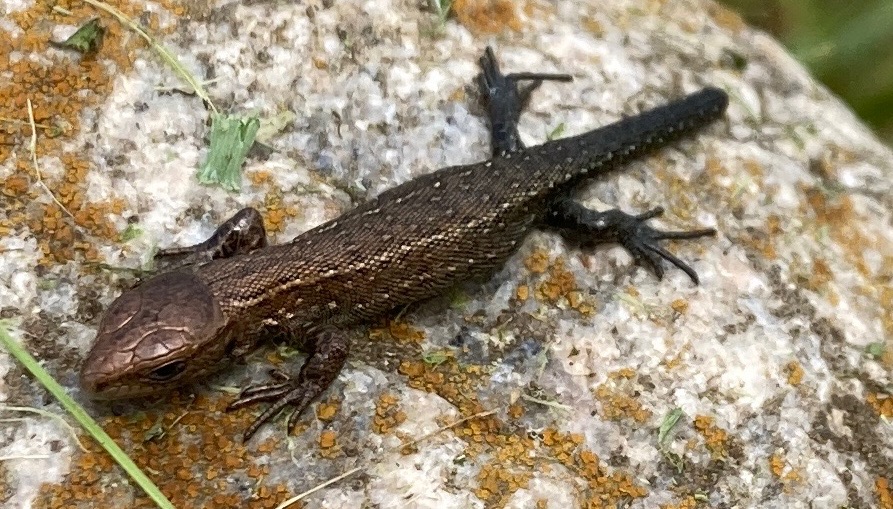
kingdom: Animalia
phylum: Chordata
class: Squamata
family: Lacertidae
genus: Zootoca
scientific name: Zootoca vivipara
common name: Skovfirben
